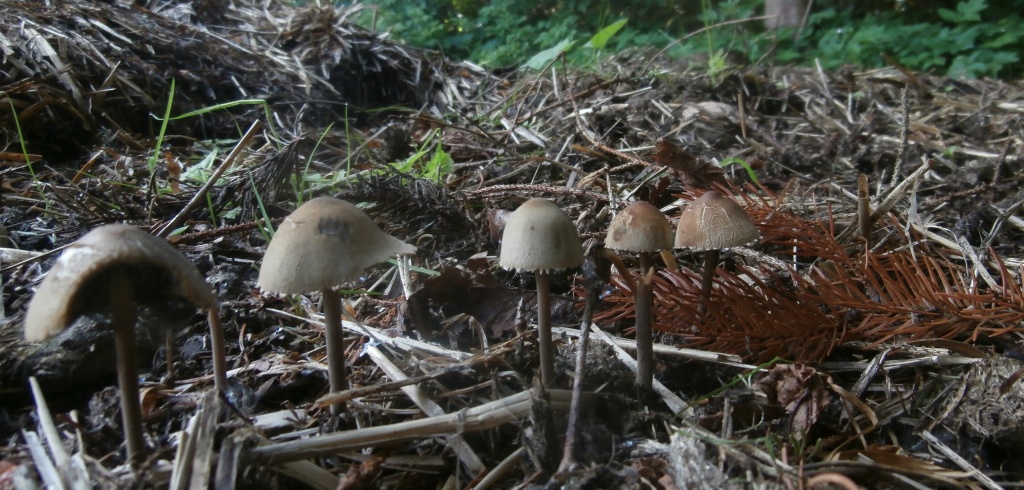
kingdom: Fungi
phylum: Basidiomycota
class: Agaricomycetes
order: Agaricales
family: Bolbitiaceae
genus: Panaeolus
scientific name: Panaeolus papilionaceus
